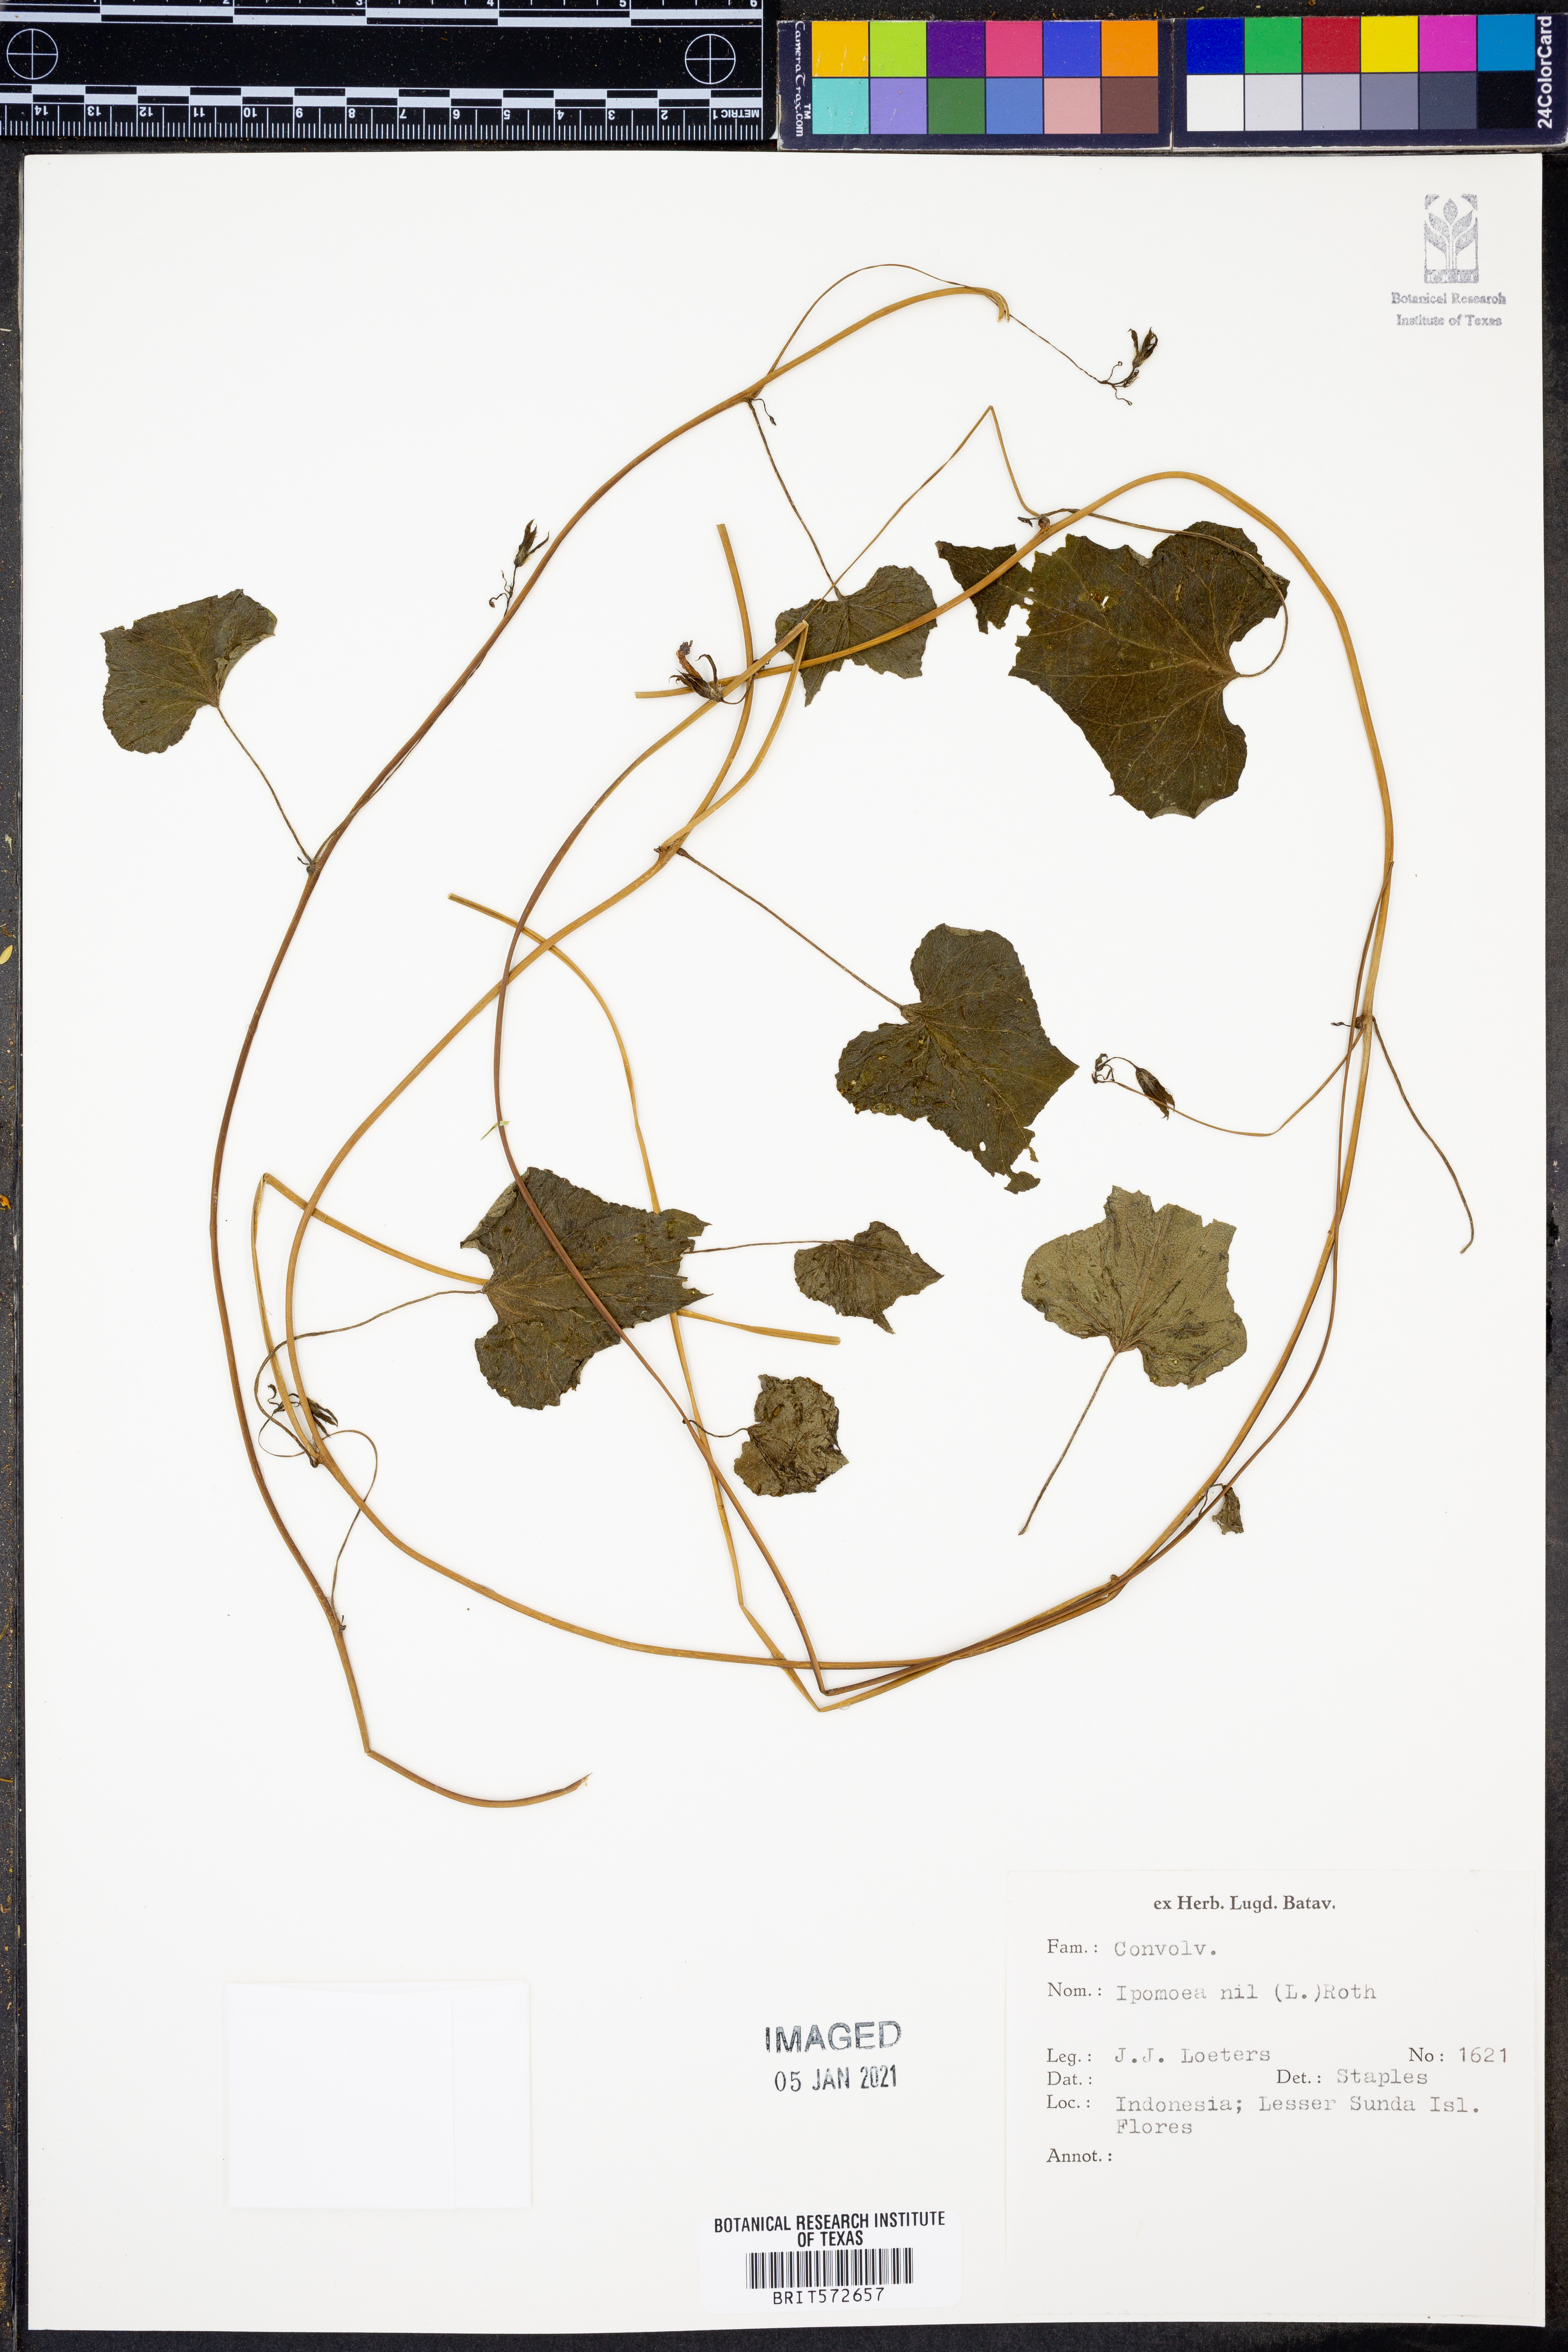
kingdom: Plantae
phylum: Tracheophyta
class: Magnoliopsida
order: Solanales
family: Convolvulaceae
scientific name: Convolvulaceae
